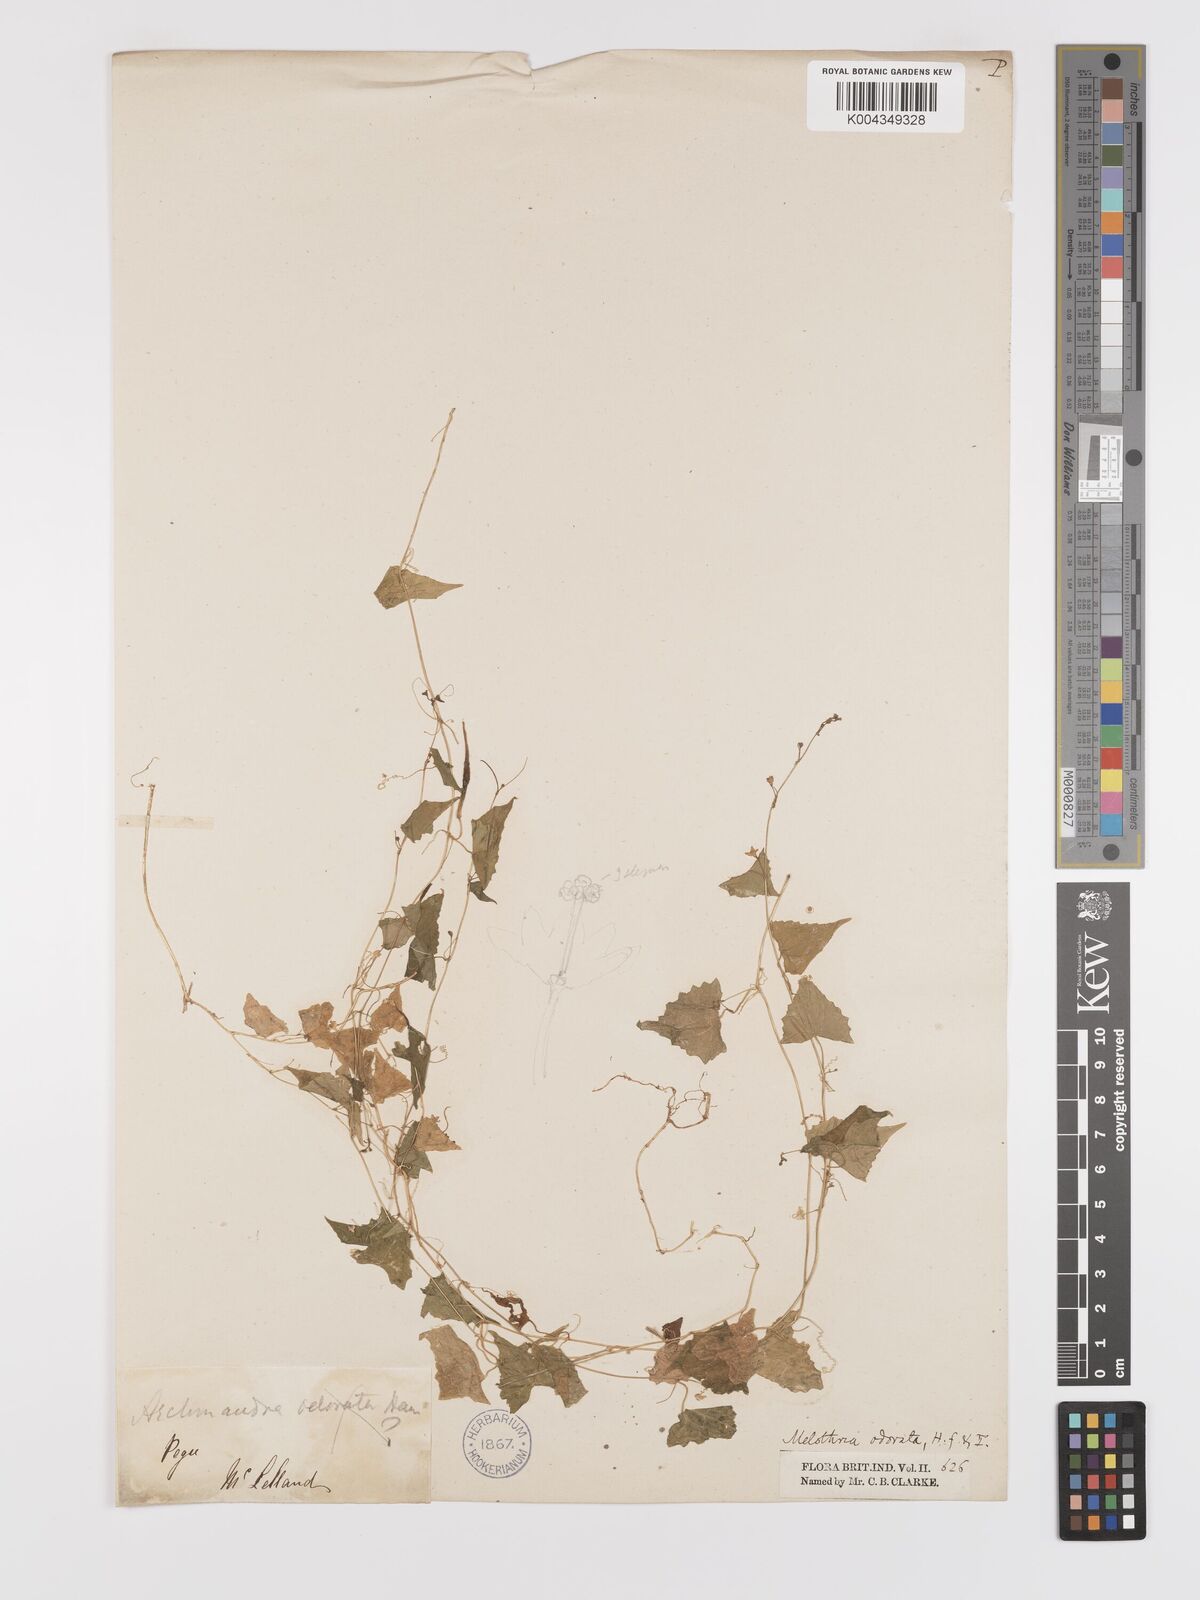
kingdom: Plantae
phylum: Tracheophyta
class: Magnoliopsida
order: Cucurbitales
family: Cucurbitaceae
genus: Zehneria
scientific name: Zehneria wallichii
